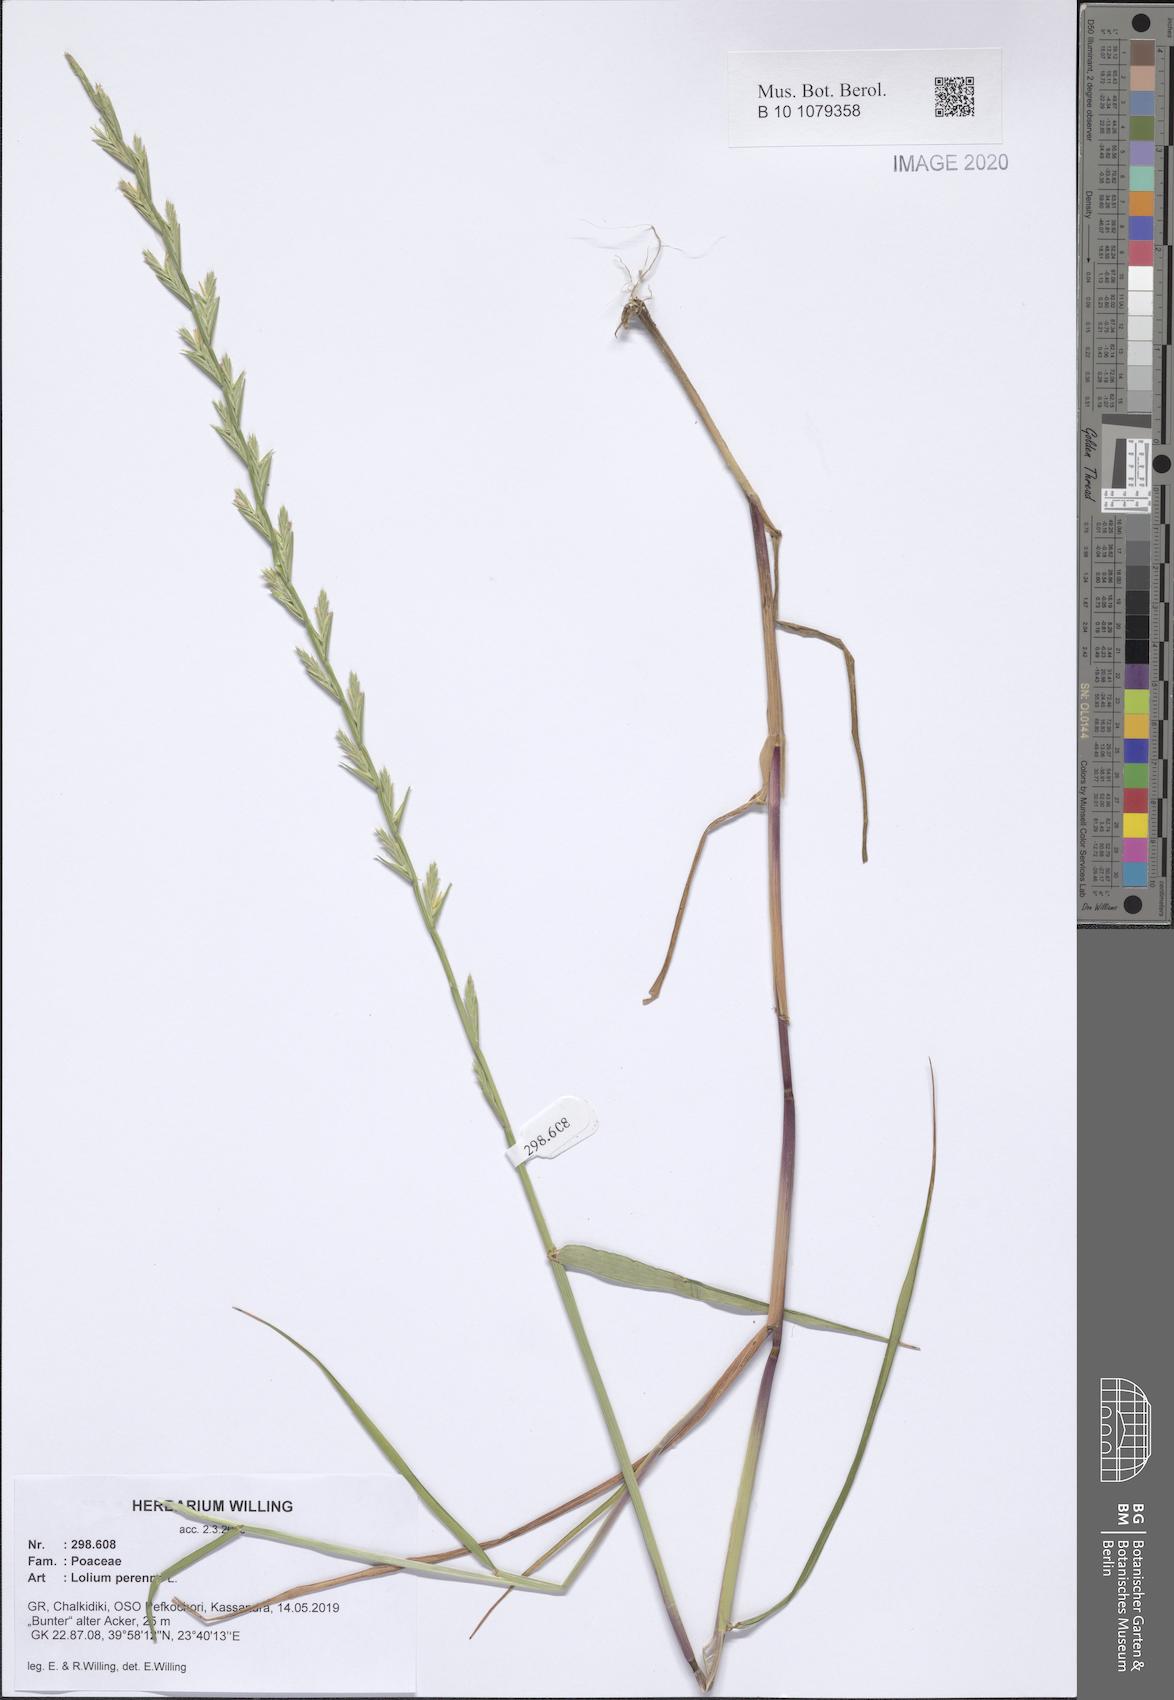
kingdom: Plantae
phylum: Tracheophyta
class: Liliopsida
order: Poales
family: Poaceae
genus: Lolium
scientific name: Lolium perenne
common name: Perennial ryegrass
